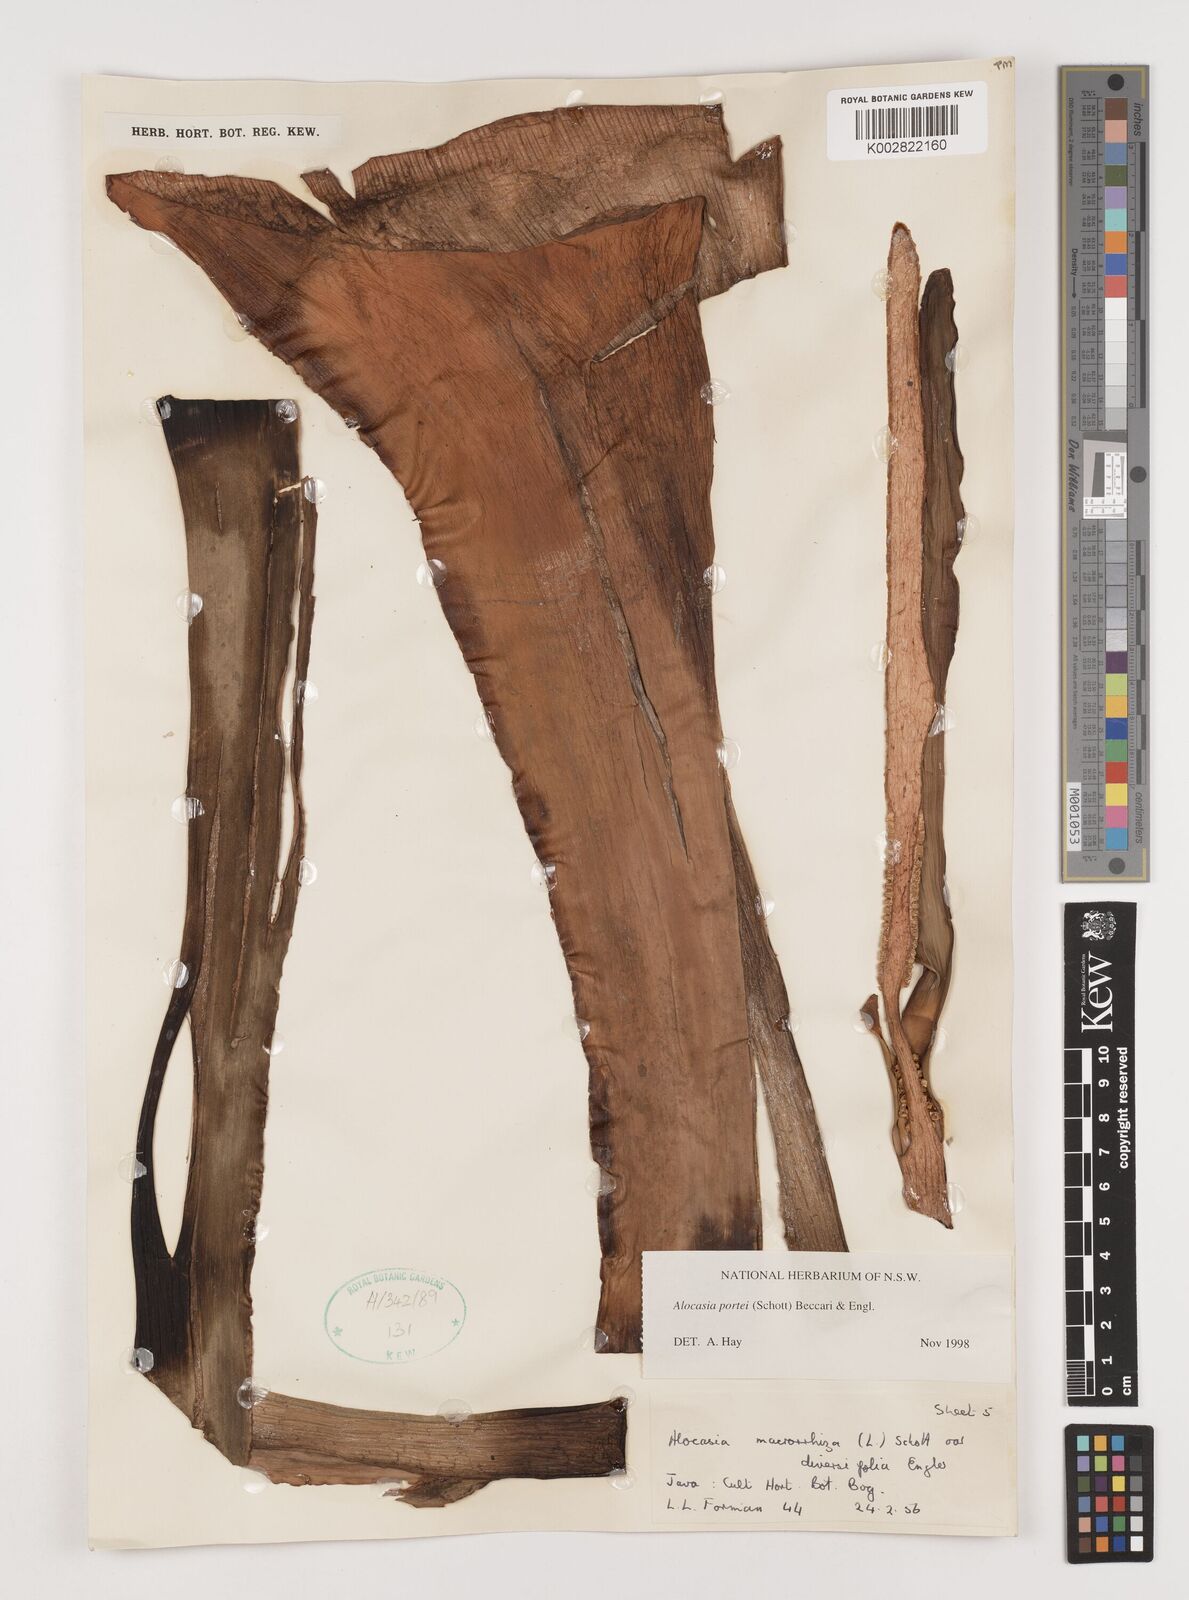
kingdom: Plantae
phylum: Tracheophyta
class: Liliopsida
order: Alismatales
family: Araceae
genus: Alocasia
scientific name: Alocasia portei
